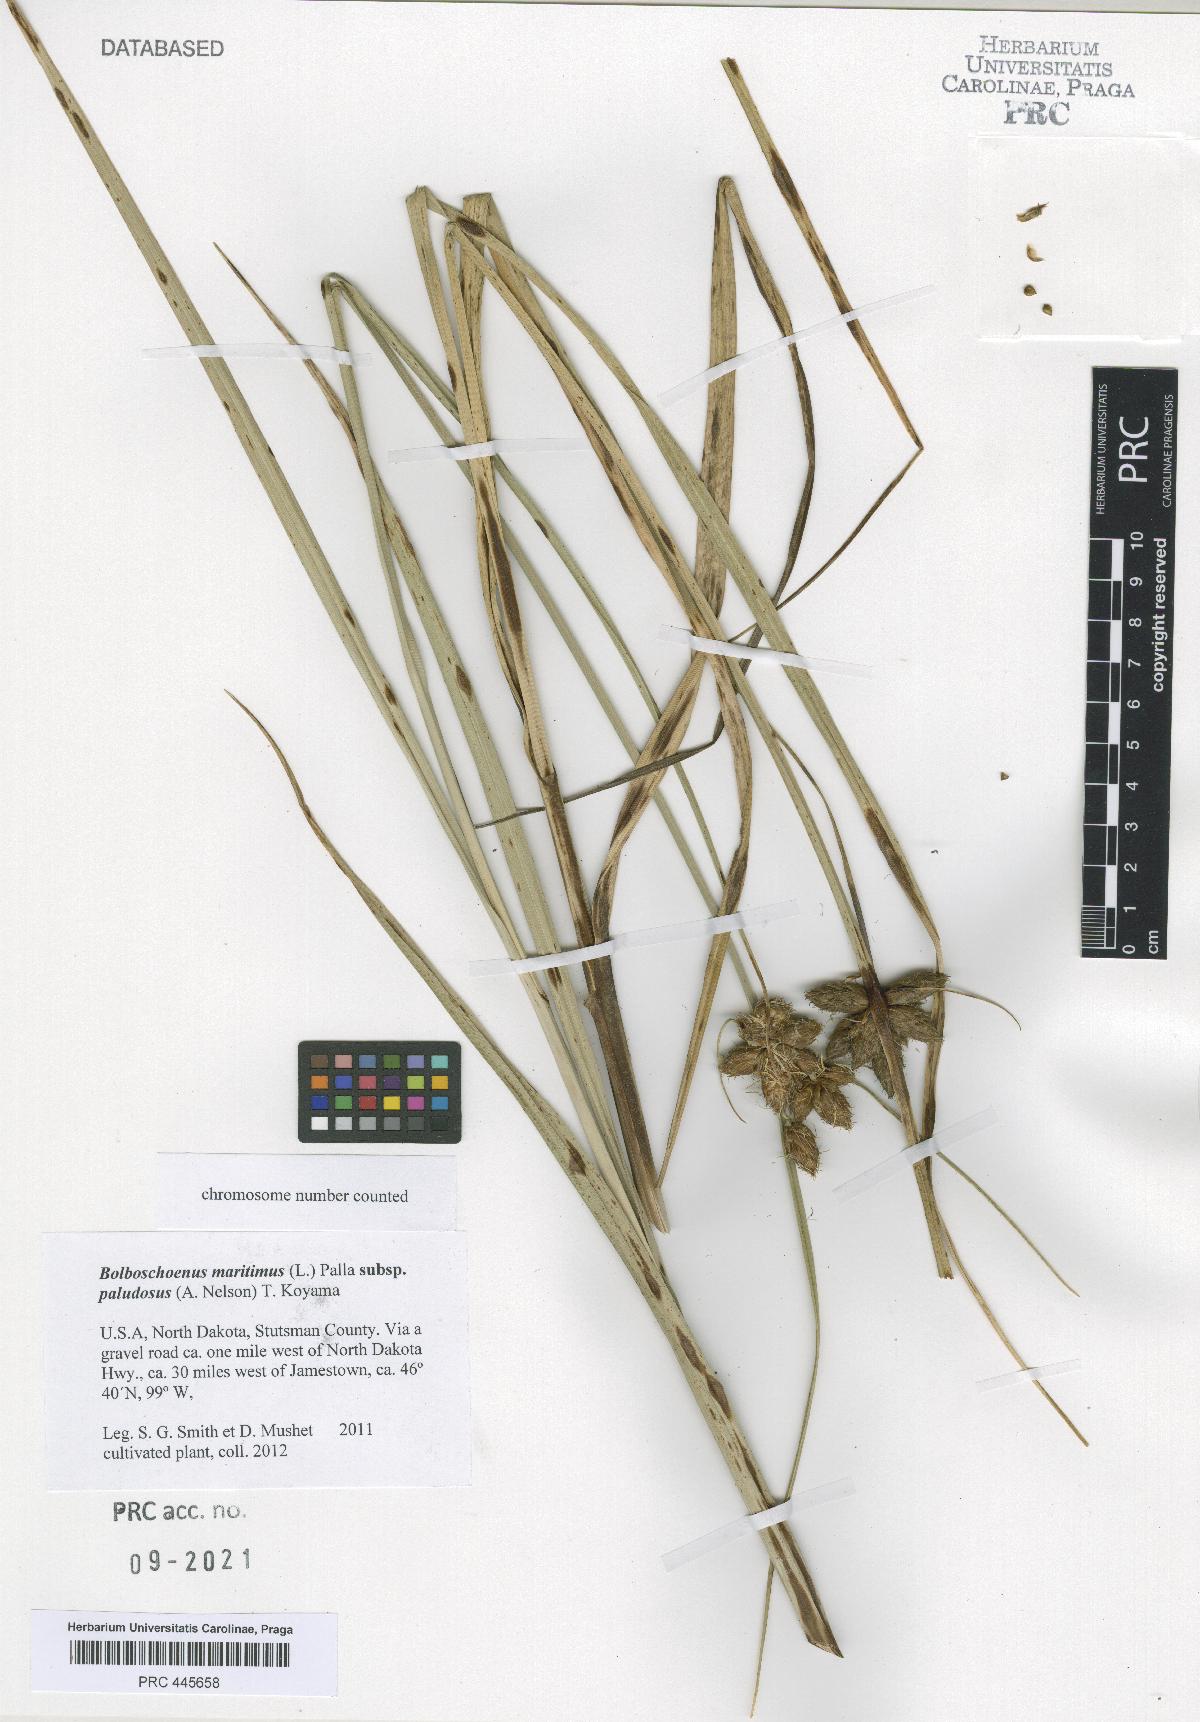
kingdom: Plantae
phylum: Tracheophyta
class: Liliopsida
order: Poales
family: Cyperaceae
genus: Bolboschoenus
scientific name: Bolboschoenus maritimus
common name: Sea club-rush
